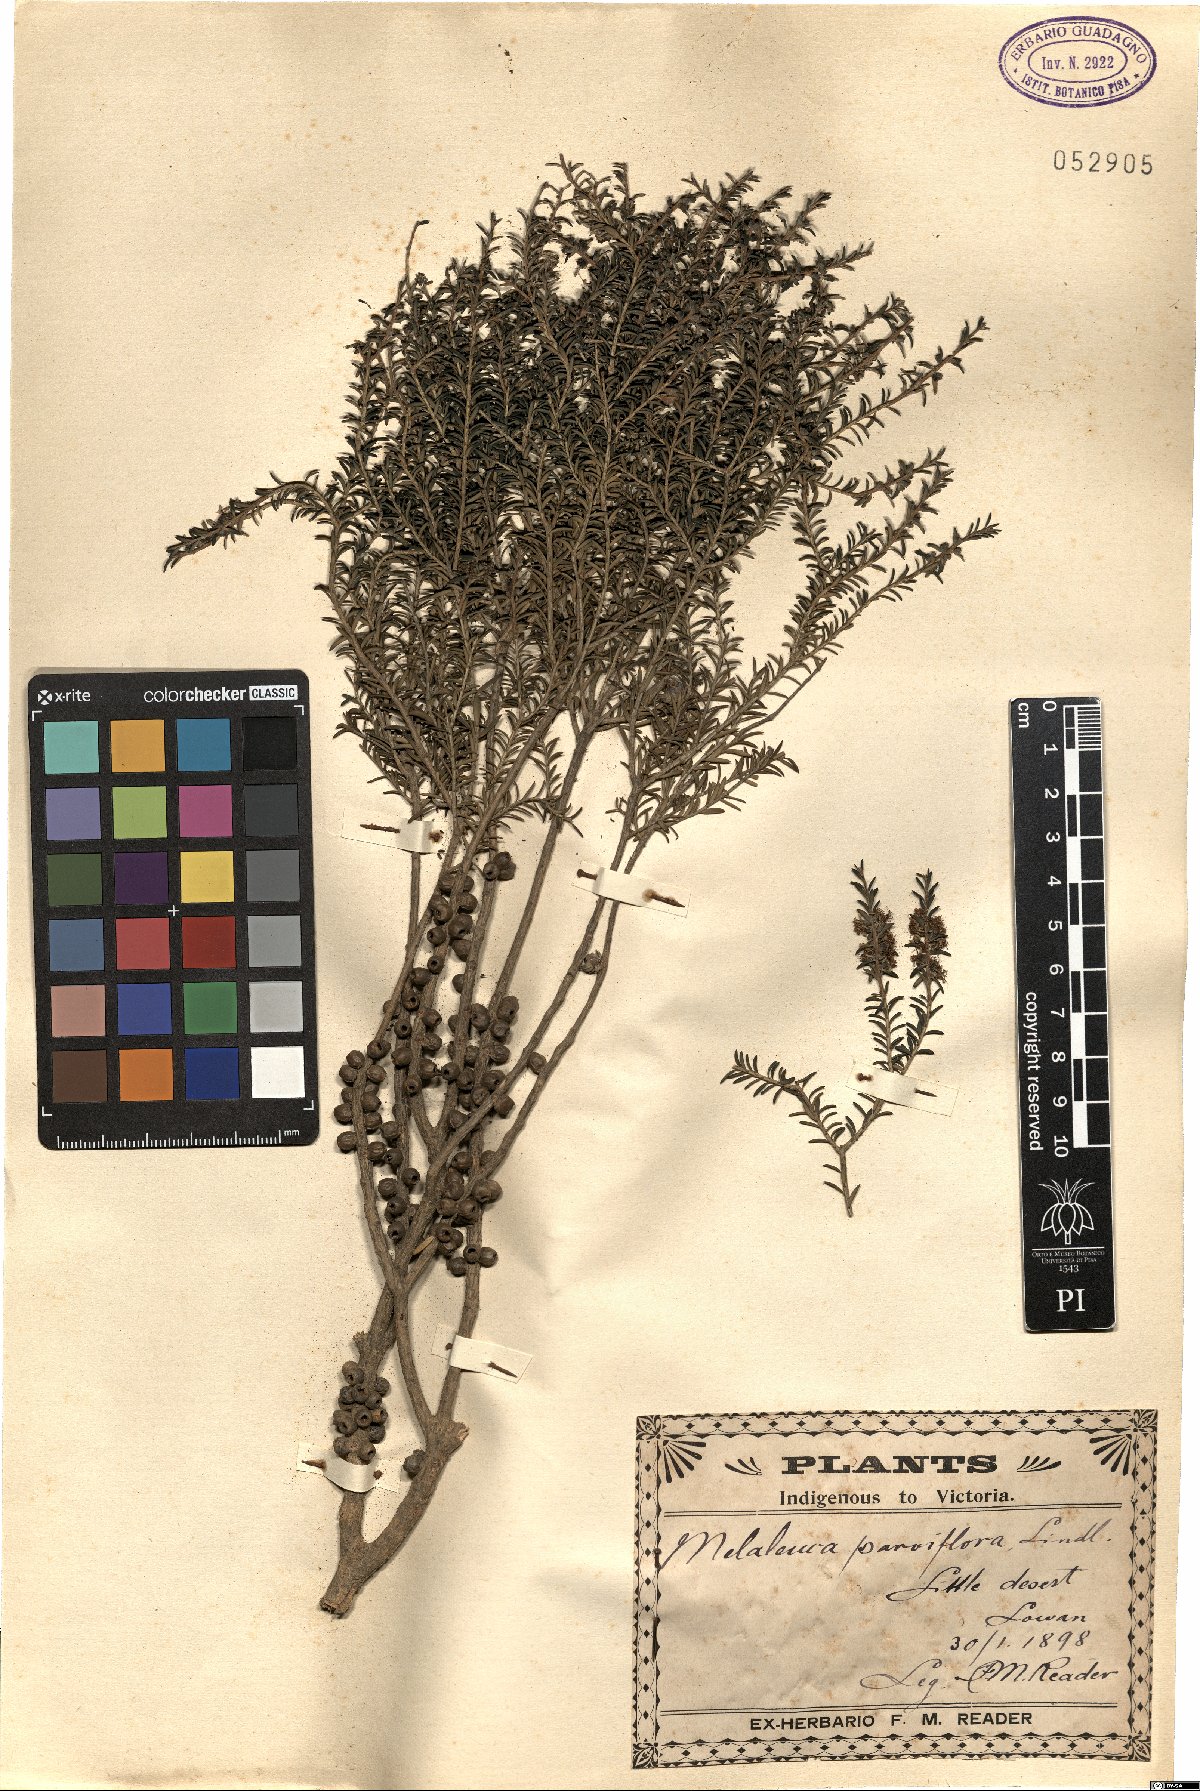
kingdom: Plantae
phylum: Tracheophyta
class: Magnoliopsida
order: Myrtales
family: Myrtaceae
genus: Melaleuca
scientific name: Melaleuca decussata
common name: Cross-leaf honey myrtle
